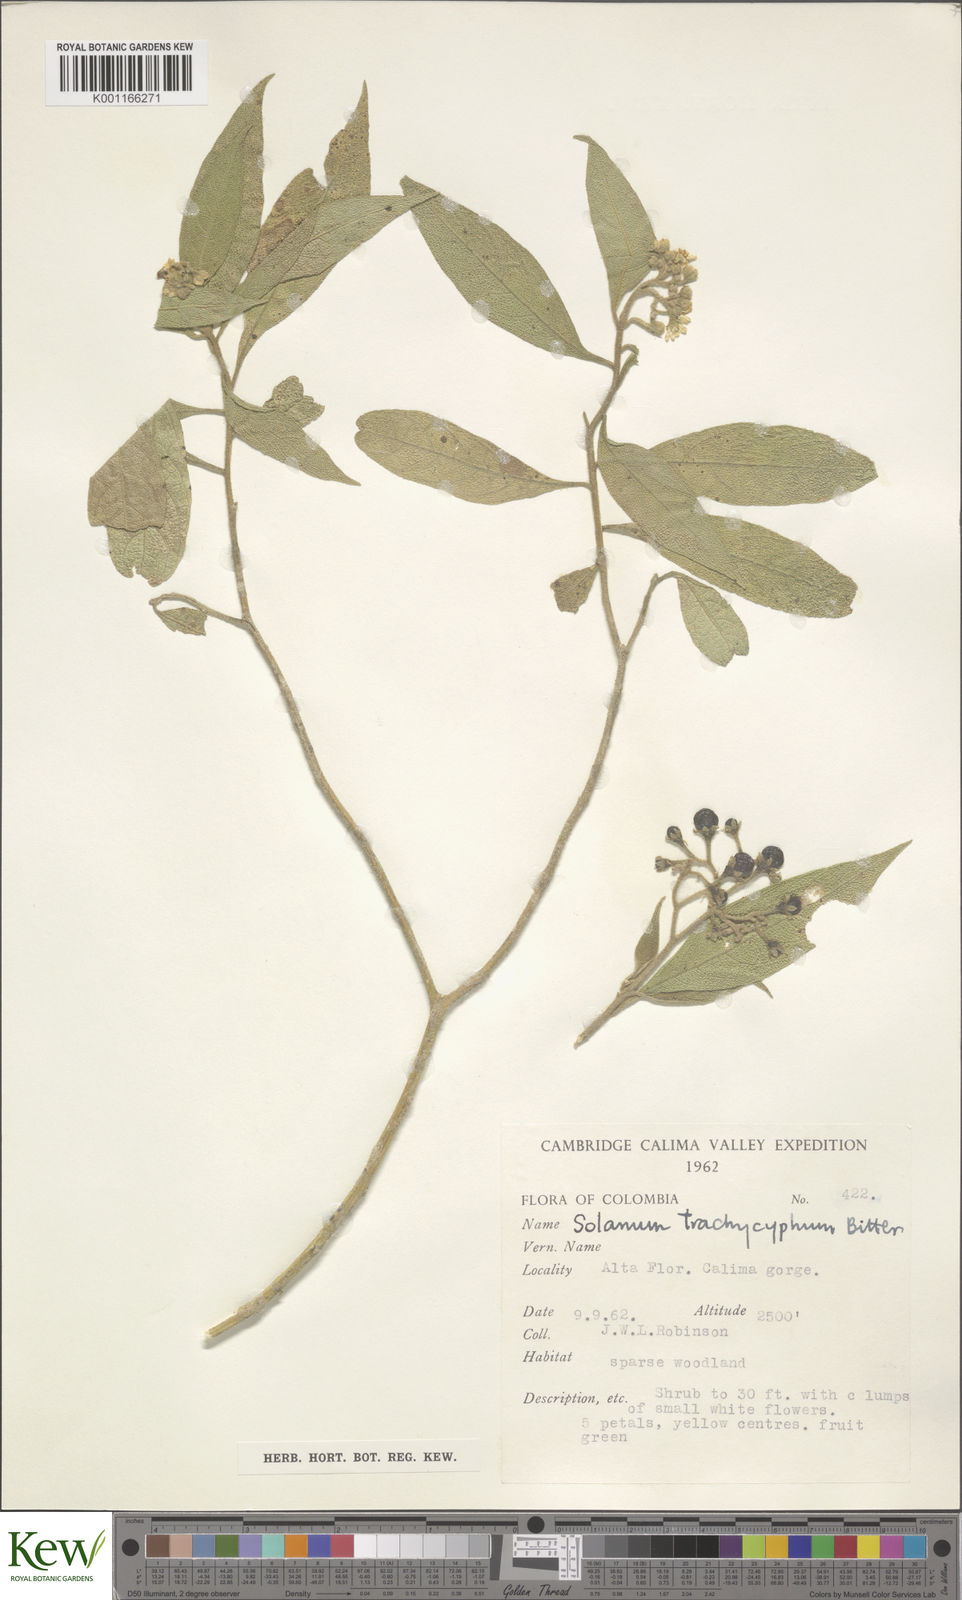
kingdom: Plantae
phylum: Tracheophyta
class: Magnoliopsida
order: Solanales
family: Solanaceae
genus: Solanum
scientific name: Solanum trachycyphum
